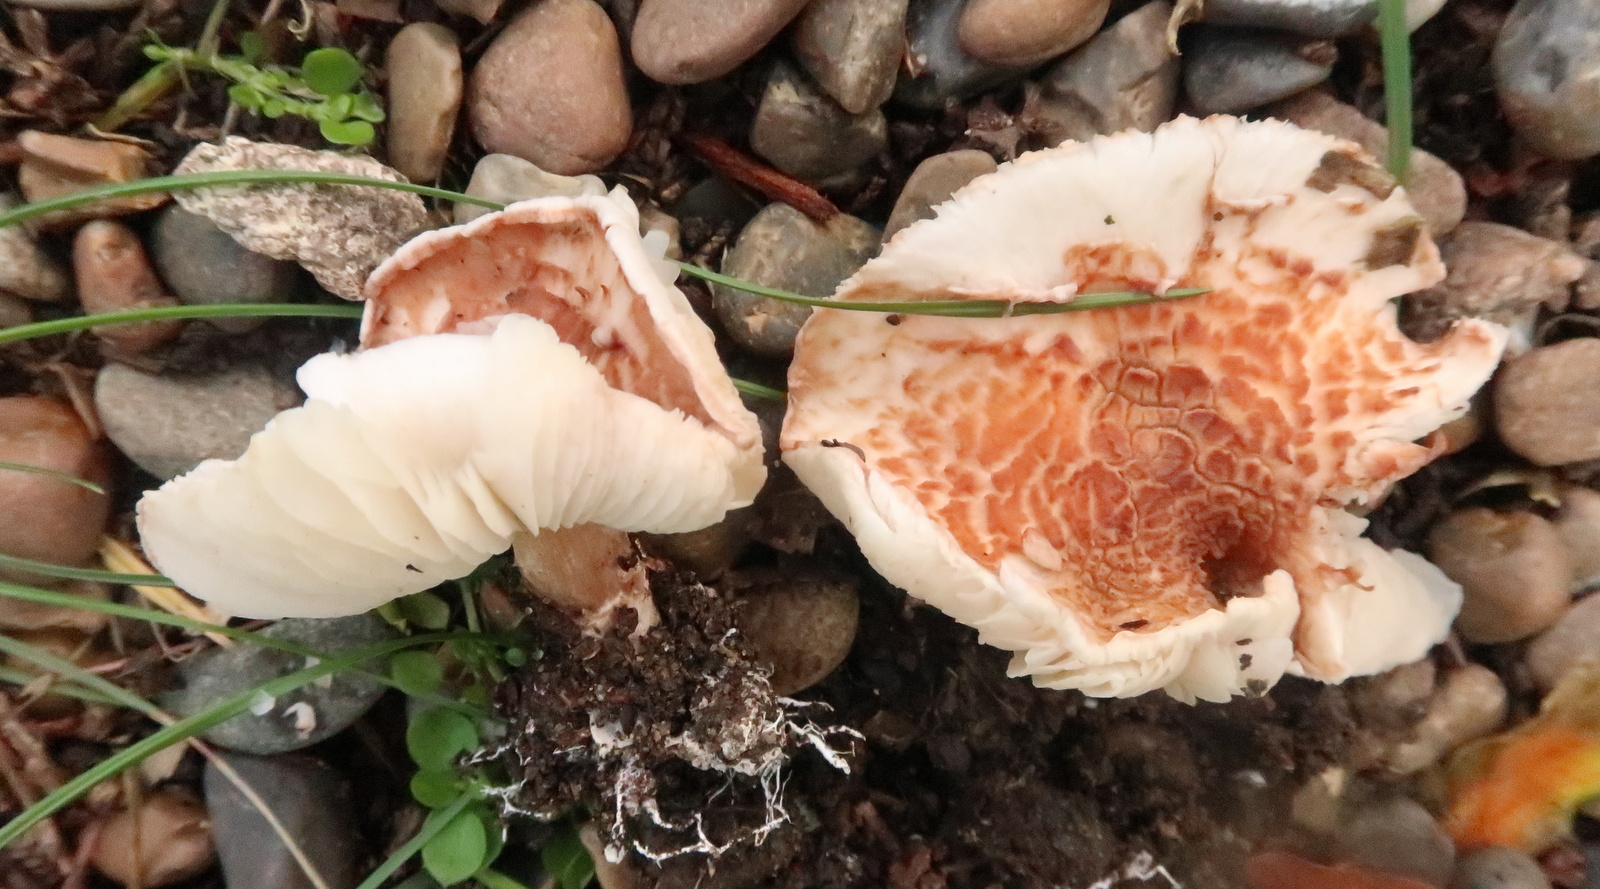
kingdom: Fungi
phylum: Basidiomycota
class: Agaricomycetes
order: Agaricales
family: Agaricaceae
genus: Lepiota
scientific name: Lepiota subincarnata
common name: kødfarvet parasolhat
